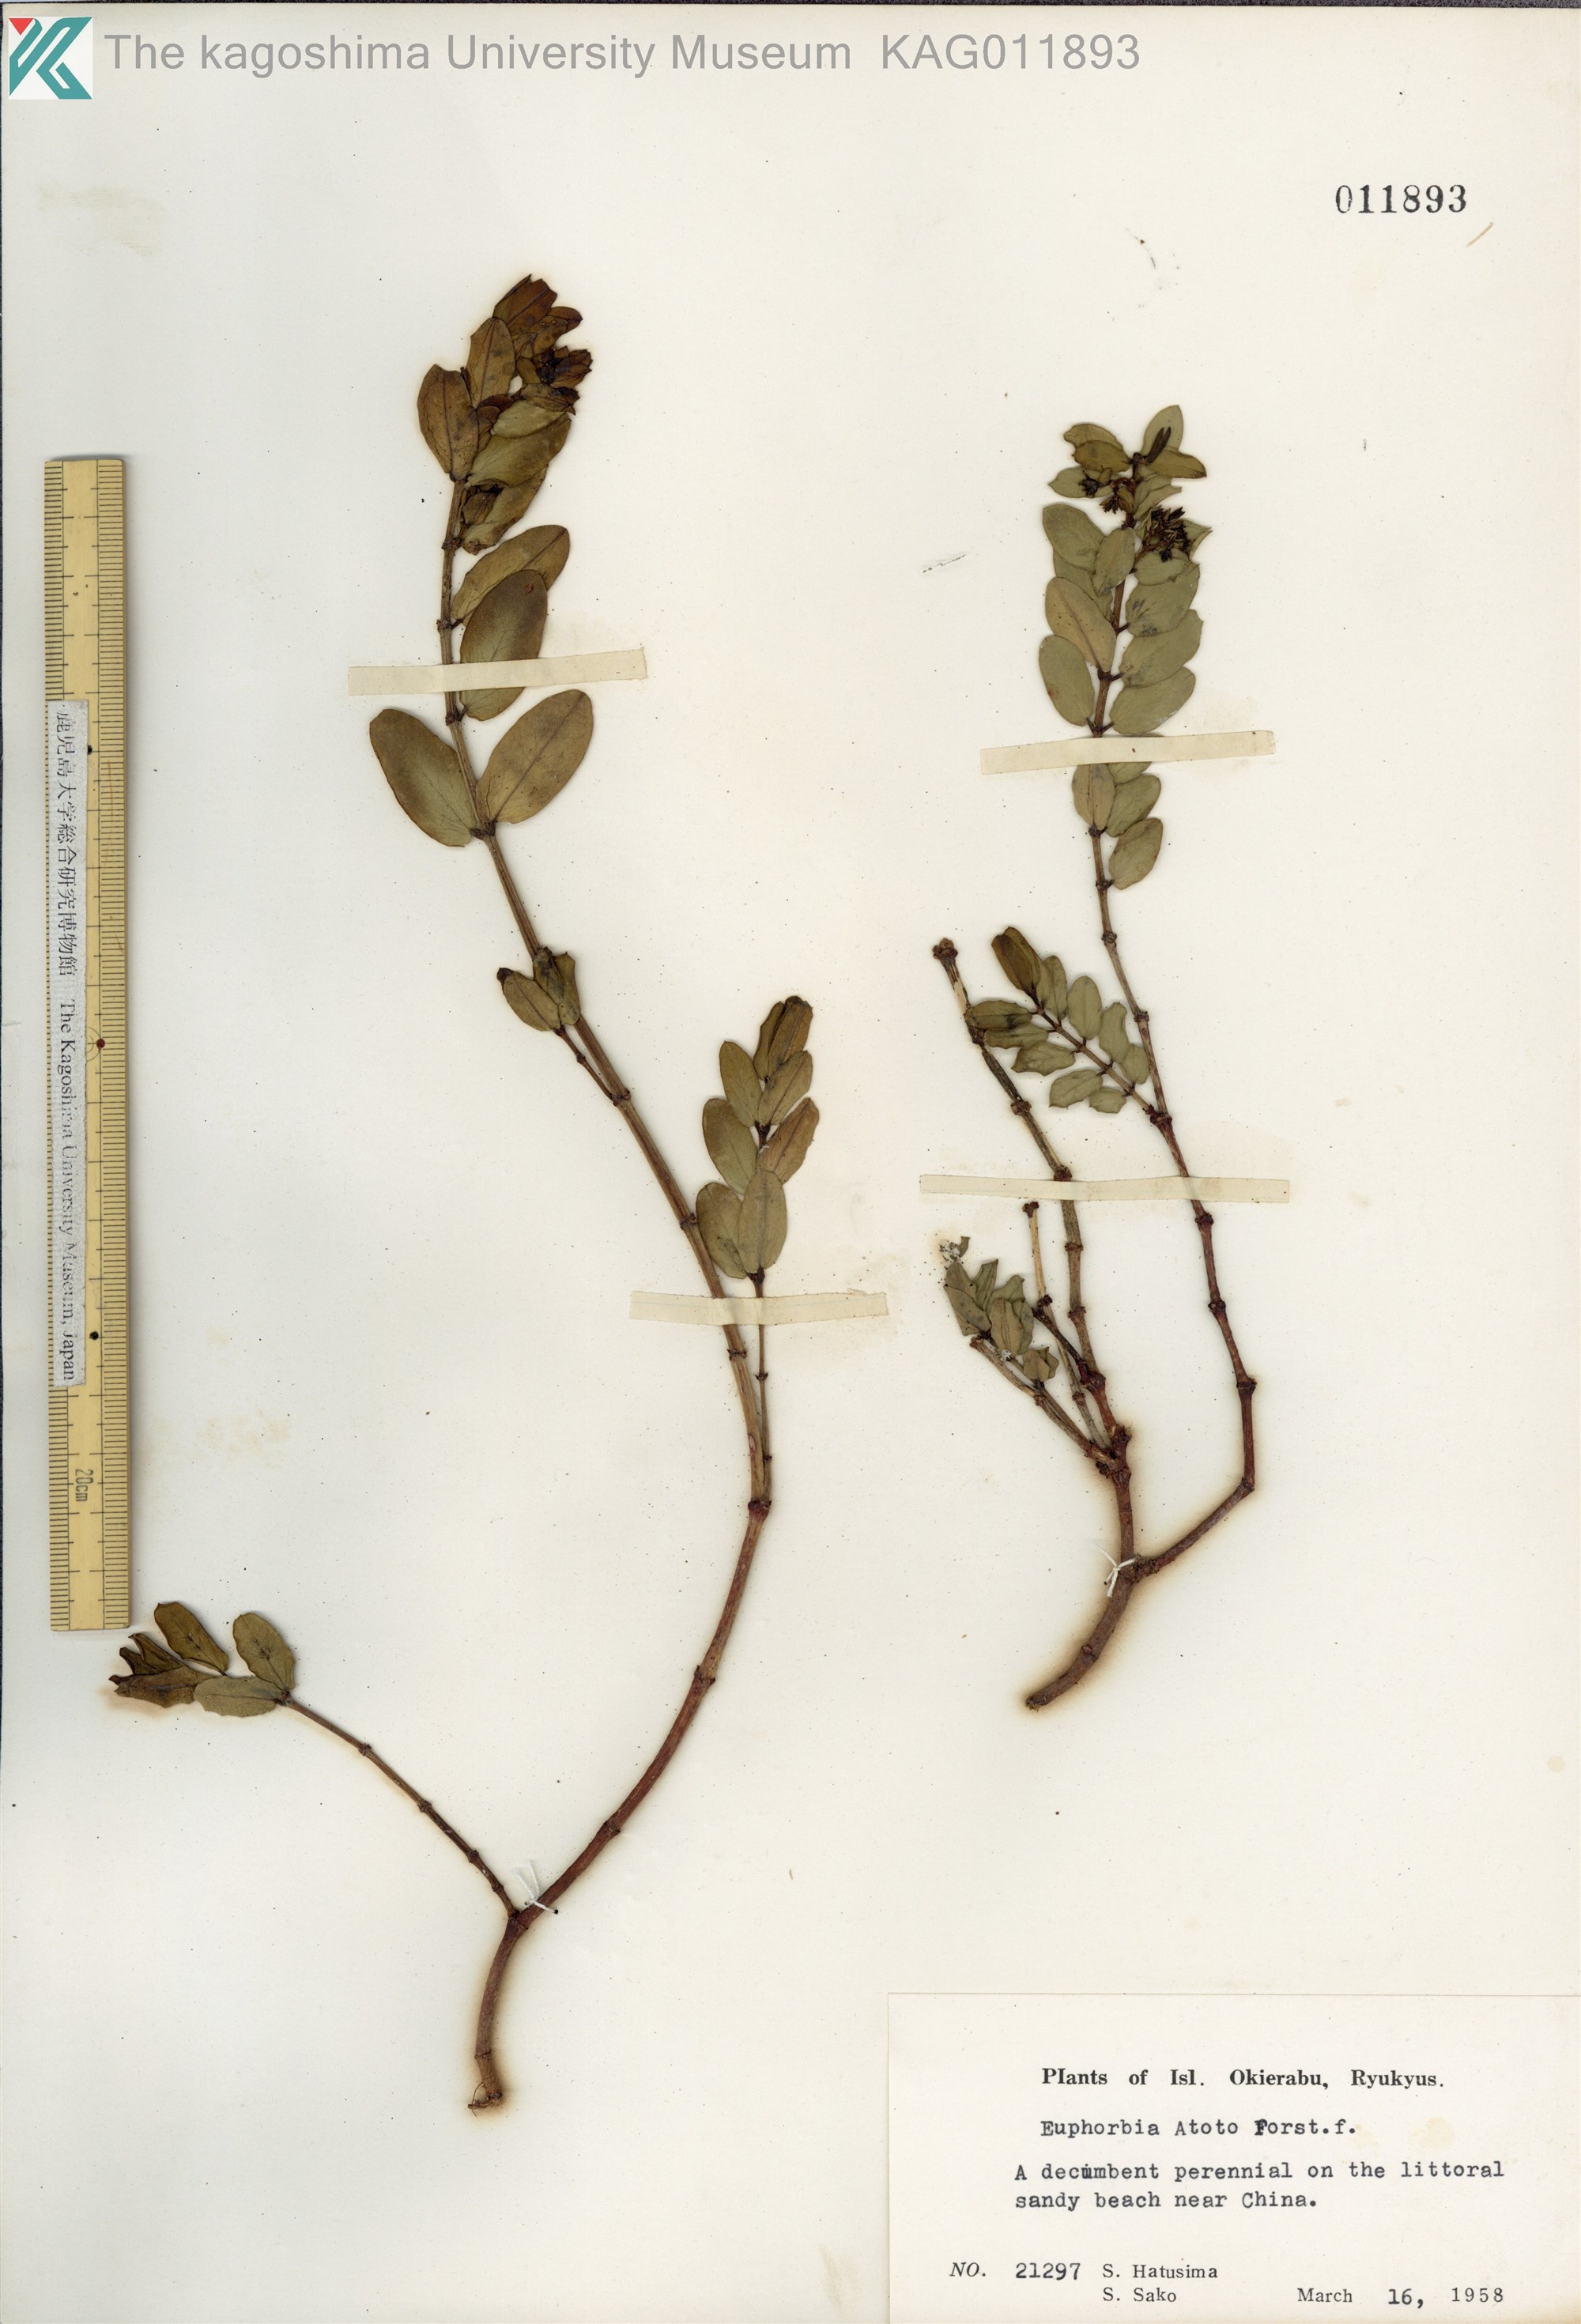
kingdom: Plantae
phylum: Tracheophyta
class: Magnoliopsida
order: Malpighiales
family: Euphorbiaceae
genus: Euphorbia
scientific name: Euphorbia chamissonis
